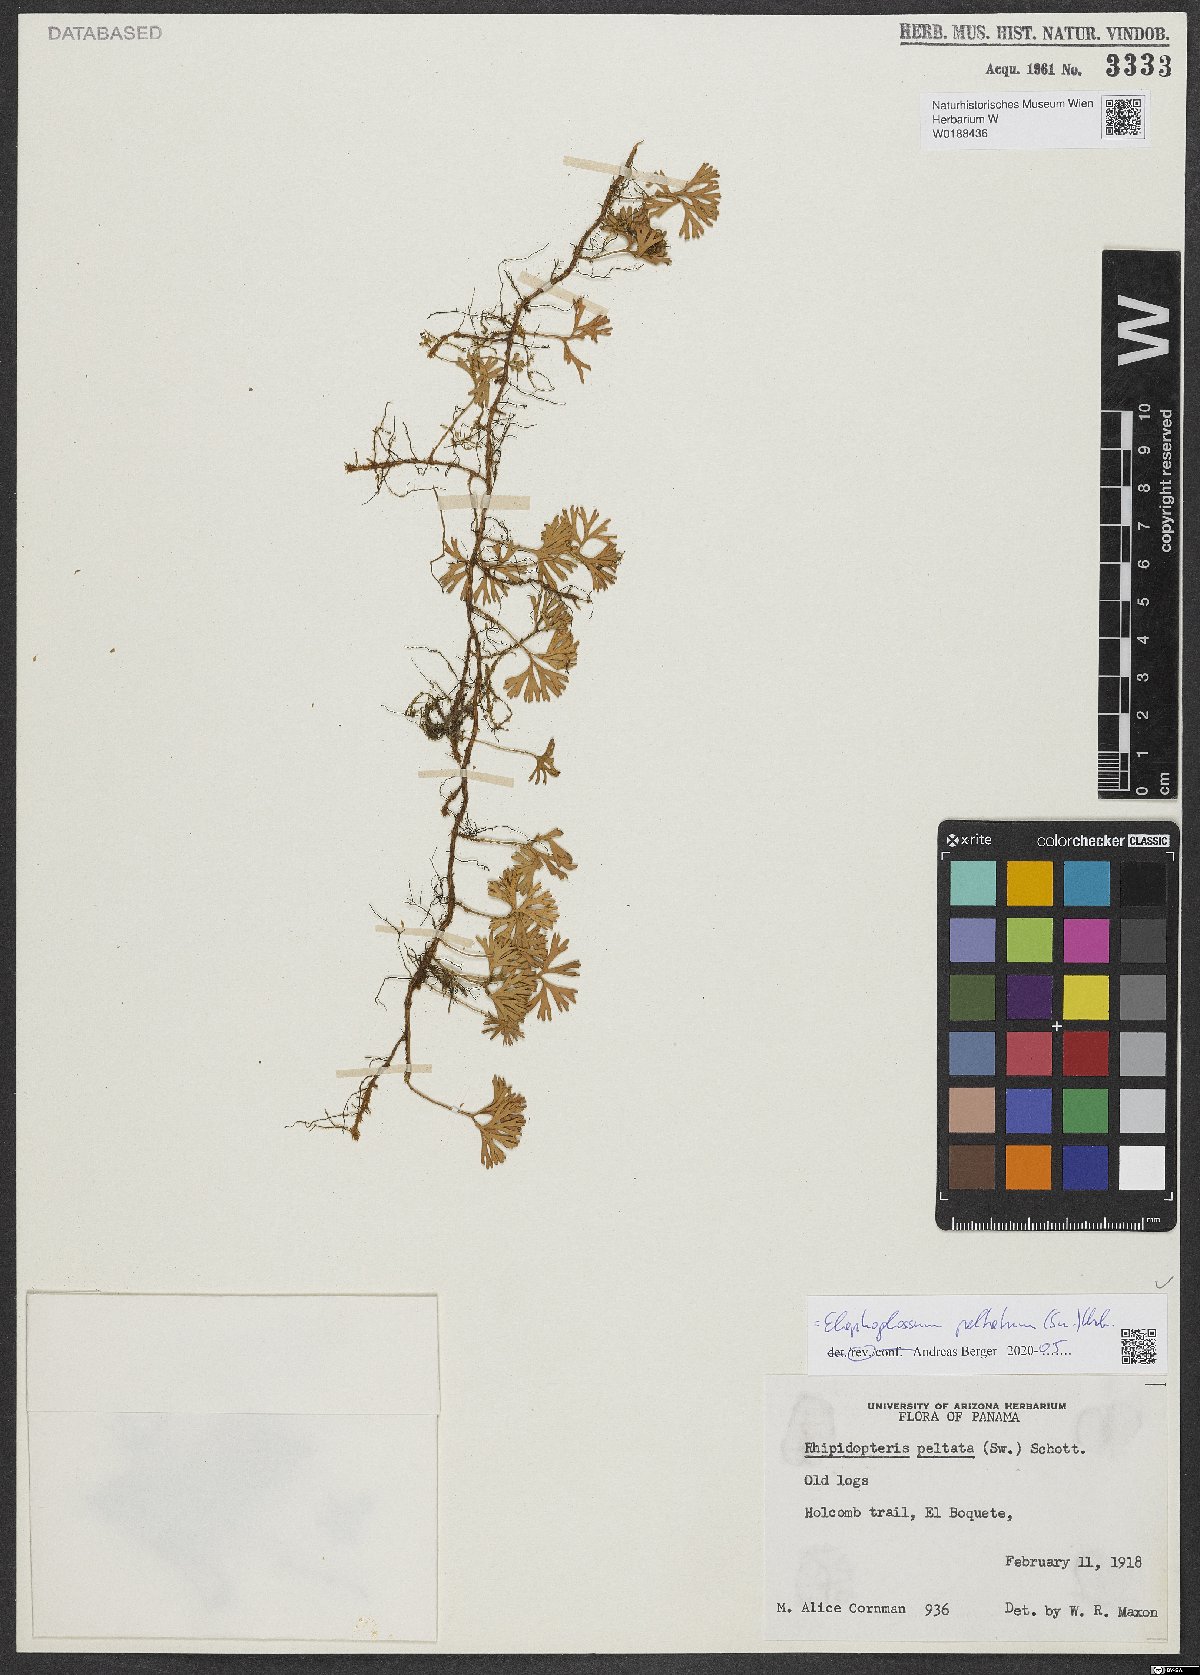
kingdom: Plantae
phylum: Tracheophyta
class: Polypodiopsida
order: Polypodiales
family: Dryopteridaceae
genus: Elaphoglossum
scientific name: Elaphoglossum peltatum
